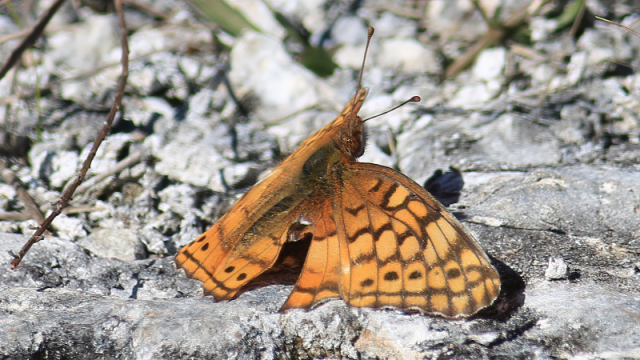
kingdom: Animalia
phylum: Arthropoda
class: Insecta
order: Lepidoptera
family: Nymphalidae
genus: Euptoieta
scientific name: Euptoieta claudia
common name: Variegated Fritillary
